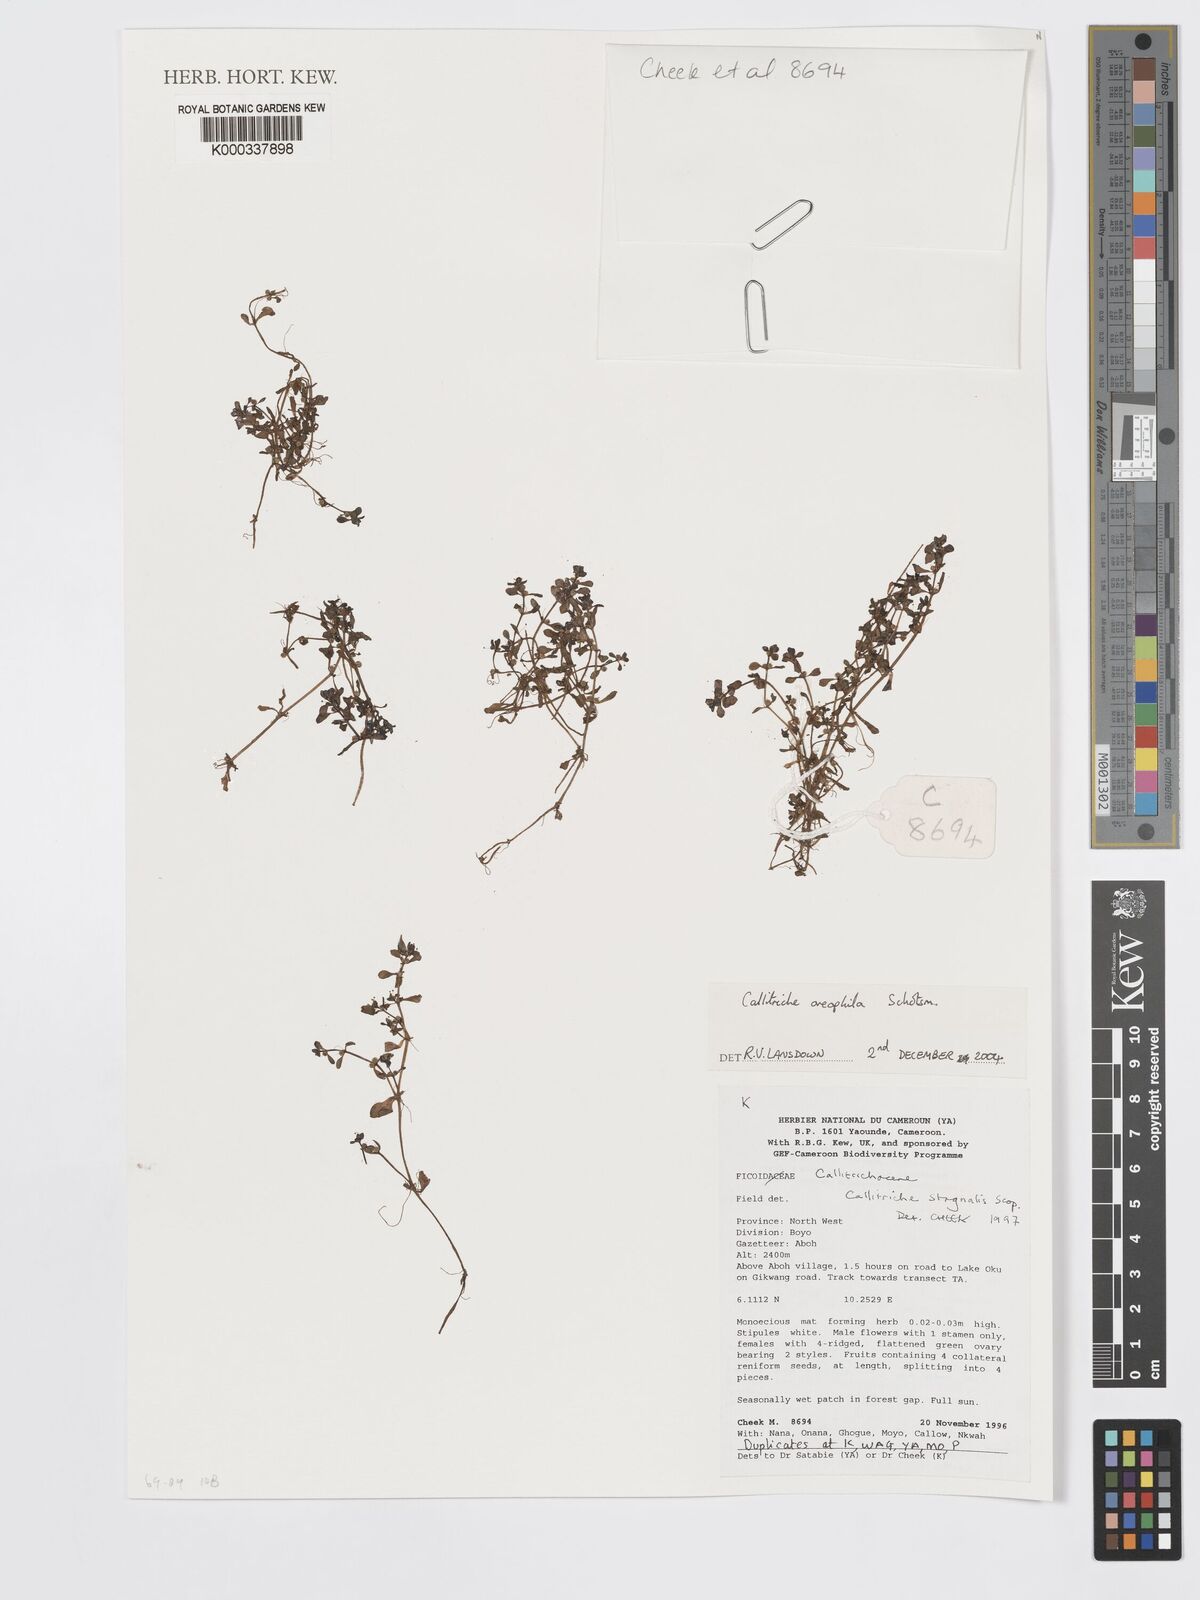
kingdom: Plantae
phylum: Tracheophyta
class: Magnoliopsida
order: Lamiales
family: Plantaginaceae
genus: Callitriche
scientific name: Callitriche stagnalis
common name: Common water-starwort
